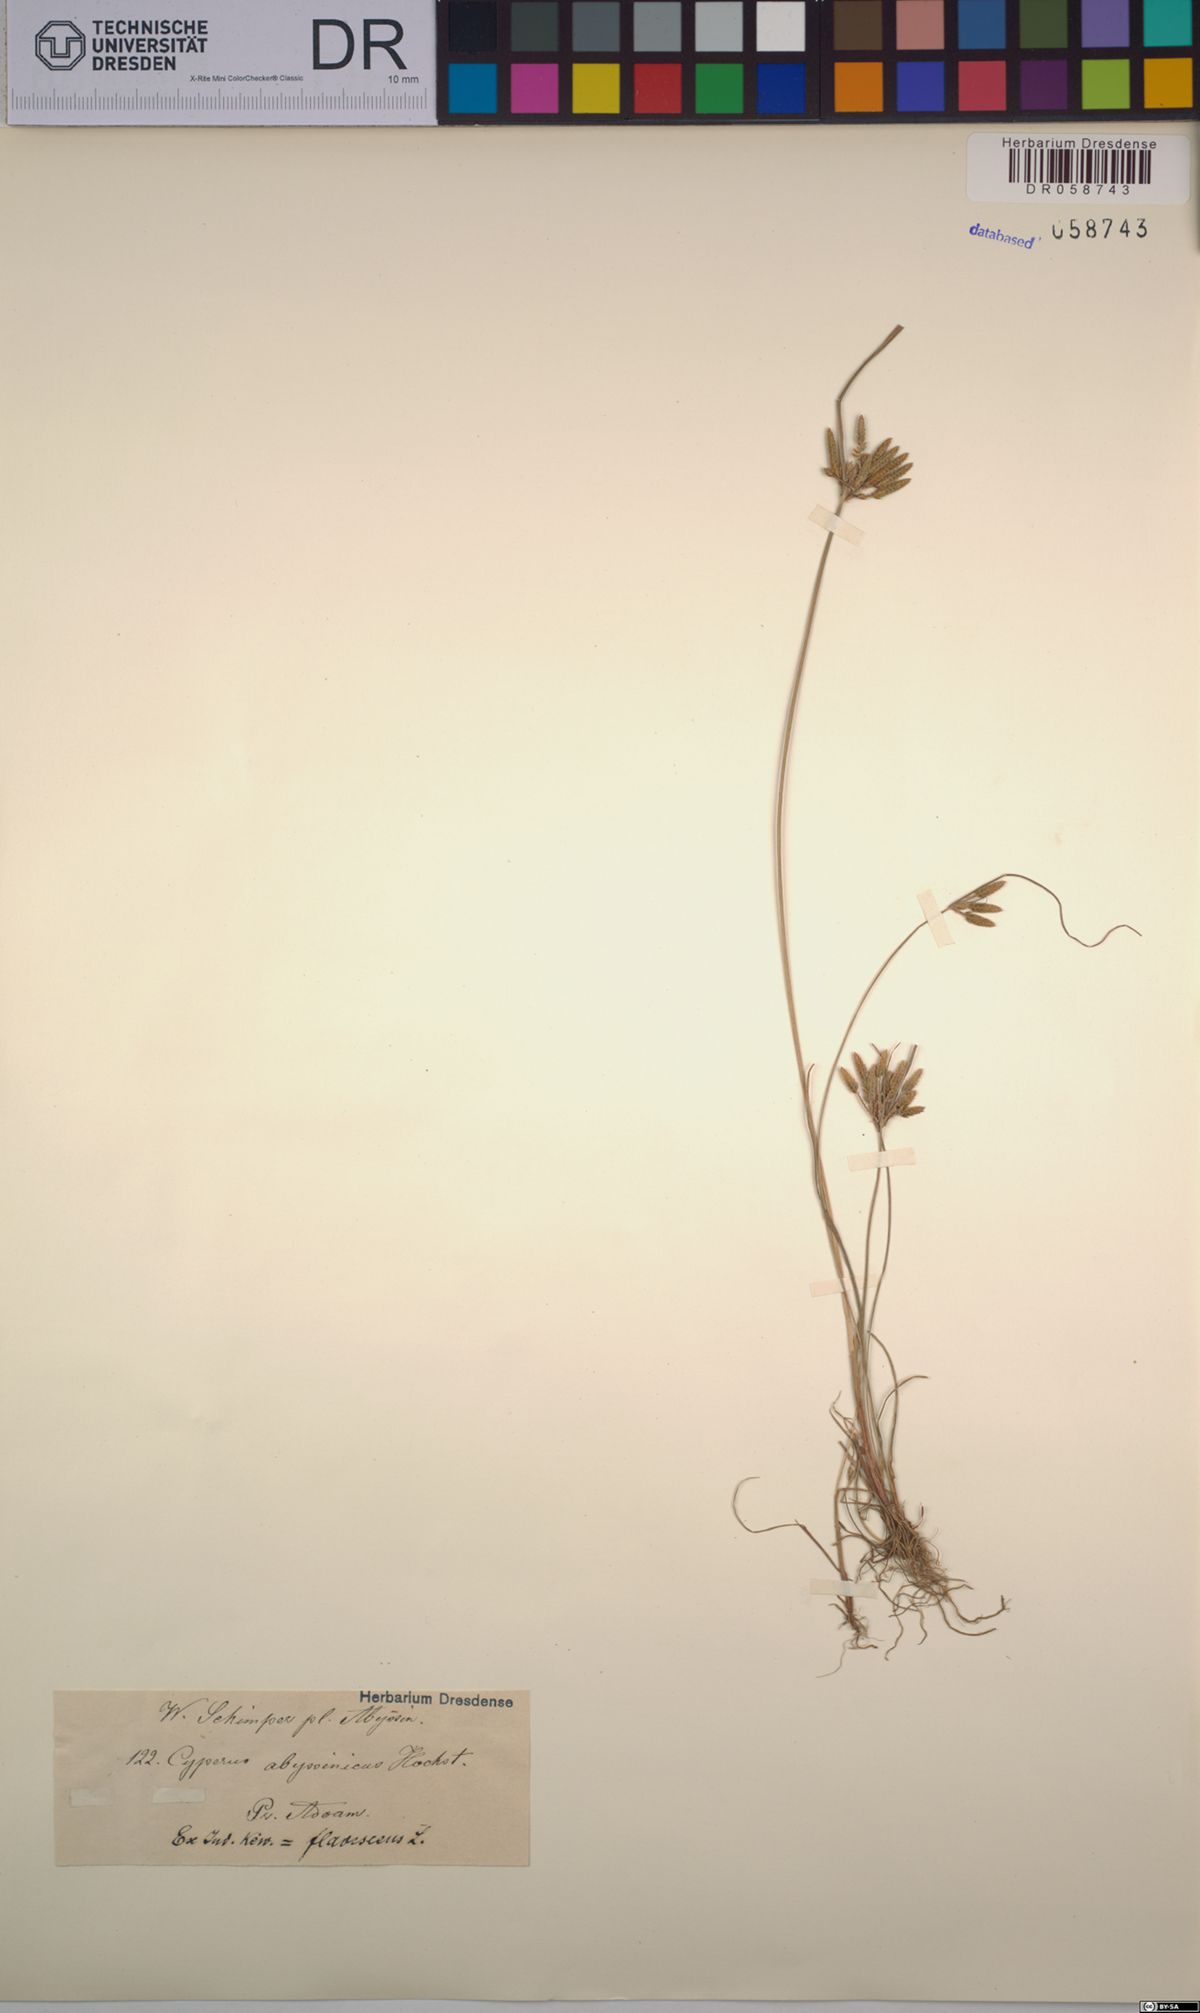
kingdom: Plantae
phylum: Tracheophyta
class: Liliopsida
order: Poales
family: Cyperaceae
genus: Cyperus
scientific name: Cyperus flavescens
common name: Yellow galingale
